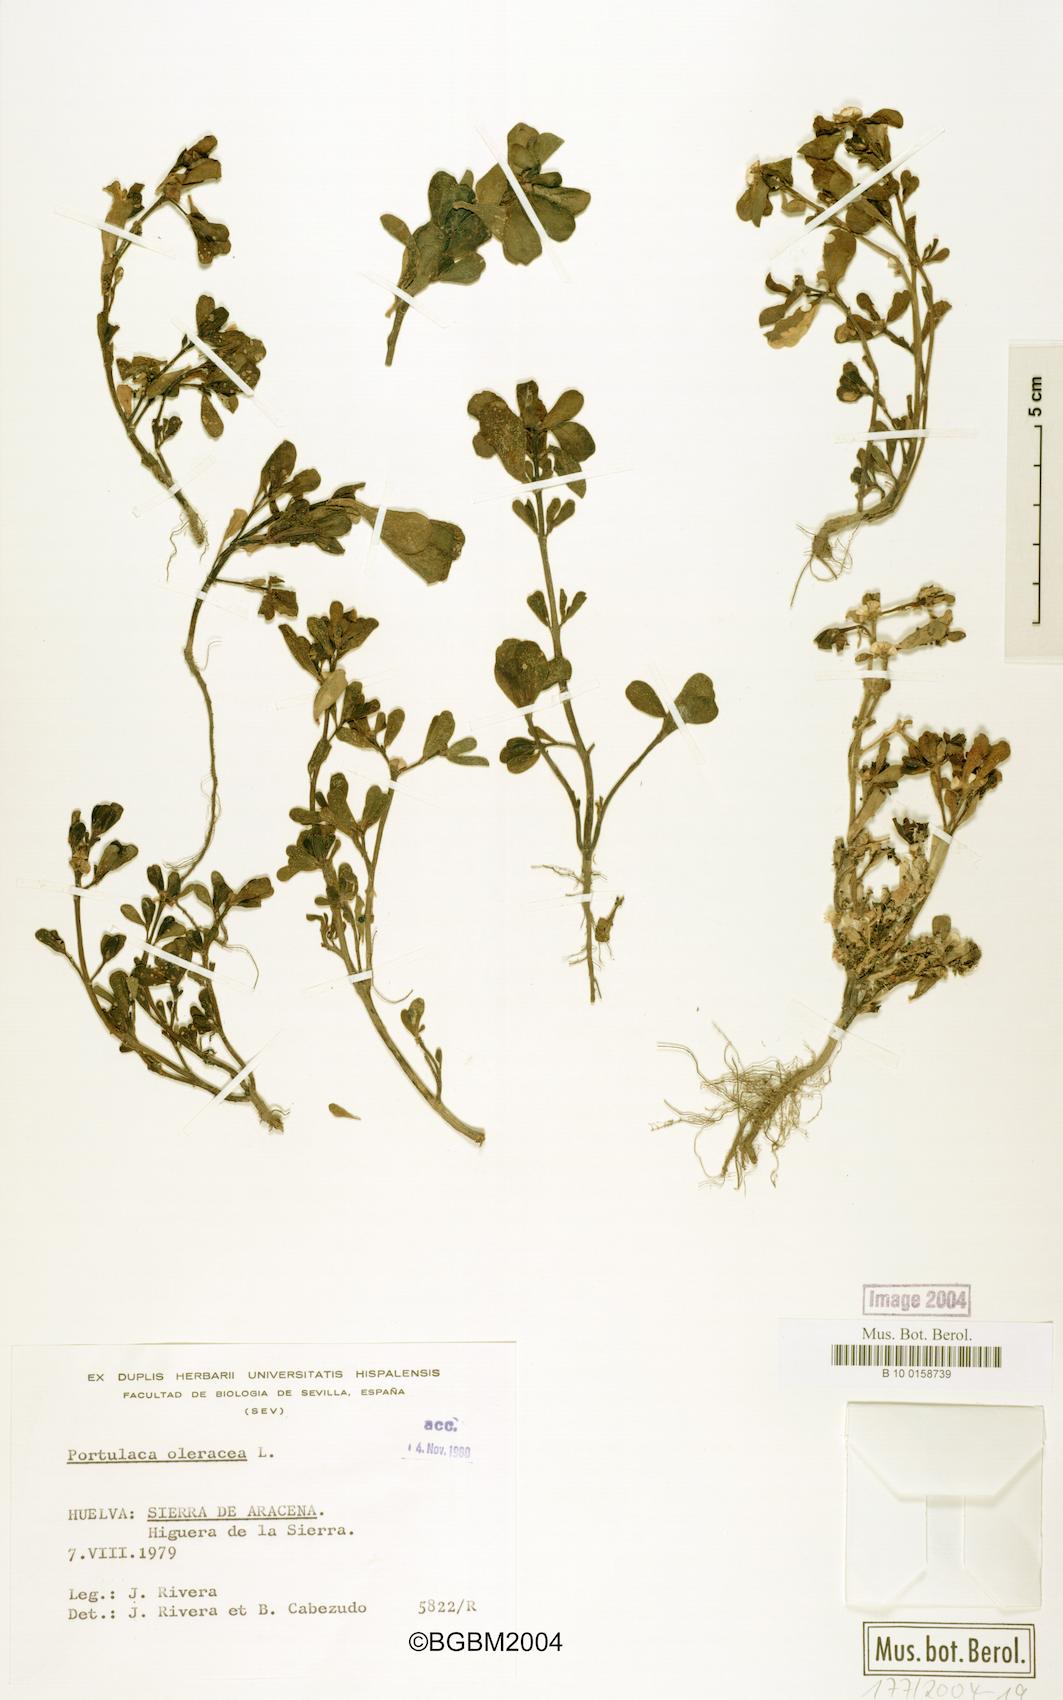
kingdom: Plantae
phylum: Tracheophyta
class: Magnoliopsida
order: Caryophyllales
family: Portulacaceae
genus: Portulaca
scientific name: Portulaca oleracea
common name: Common purslane
